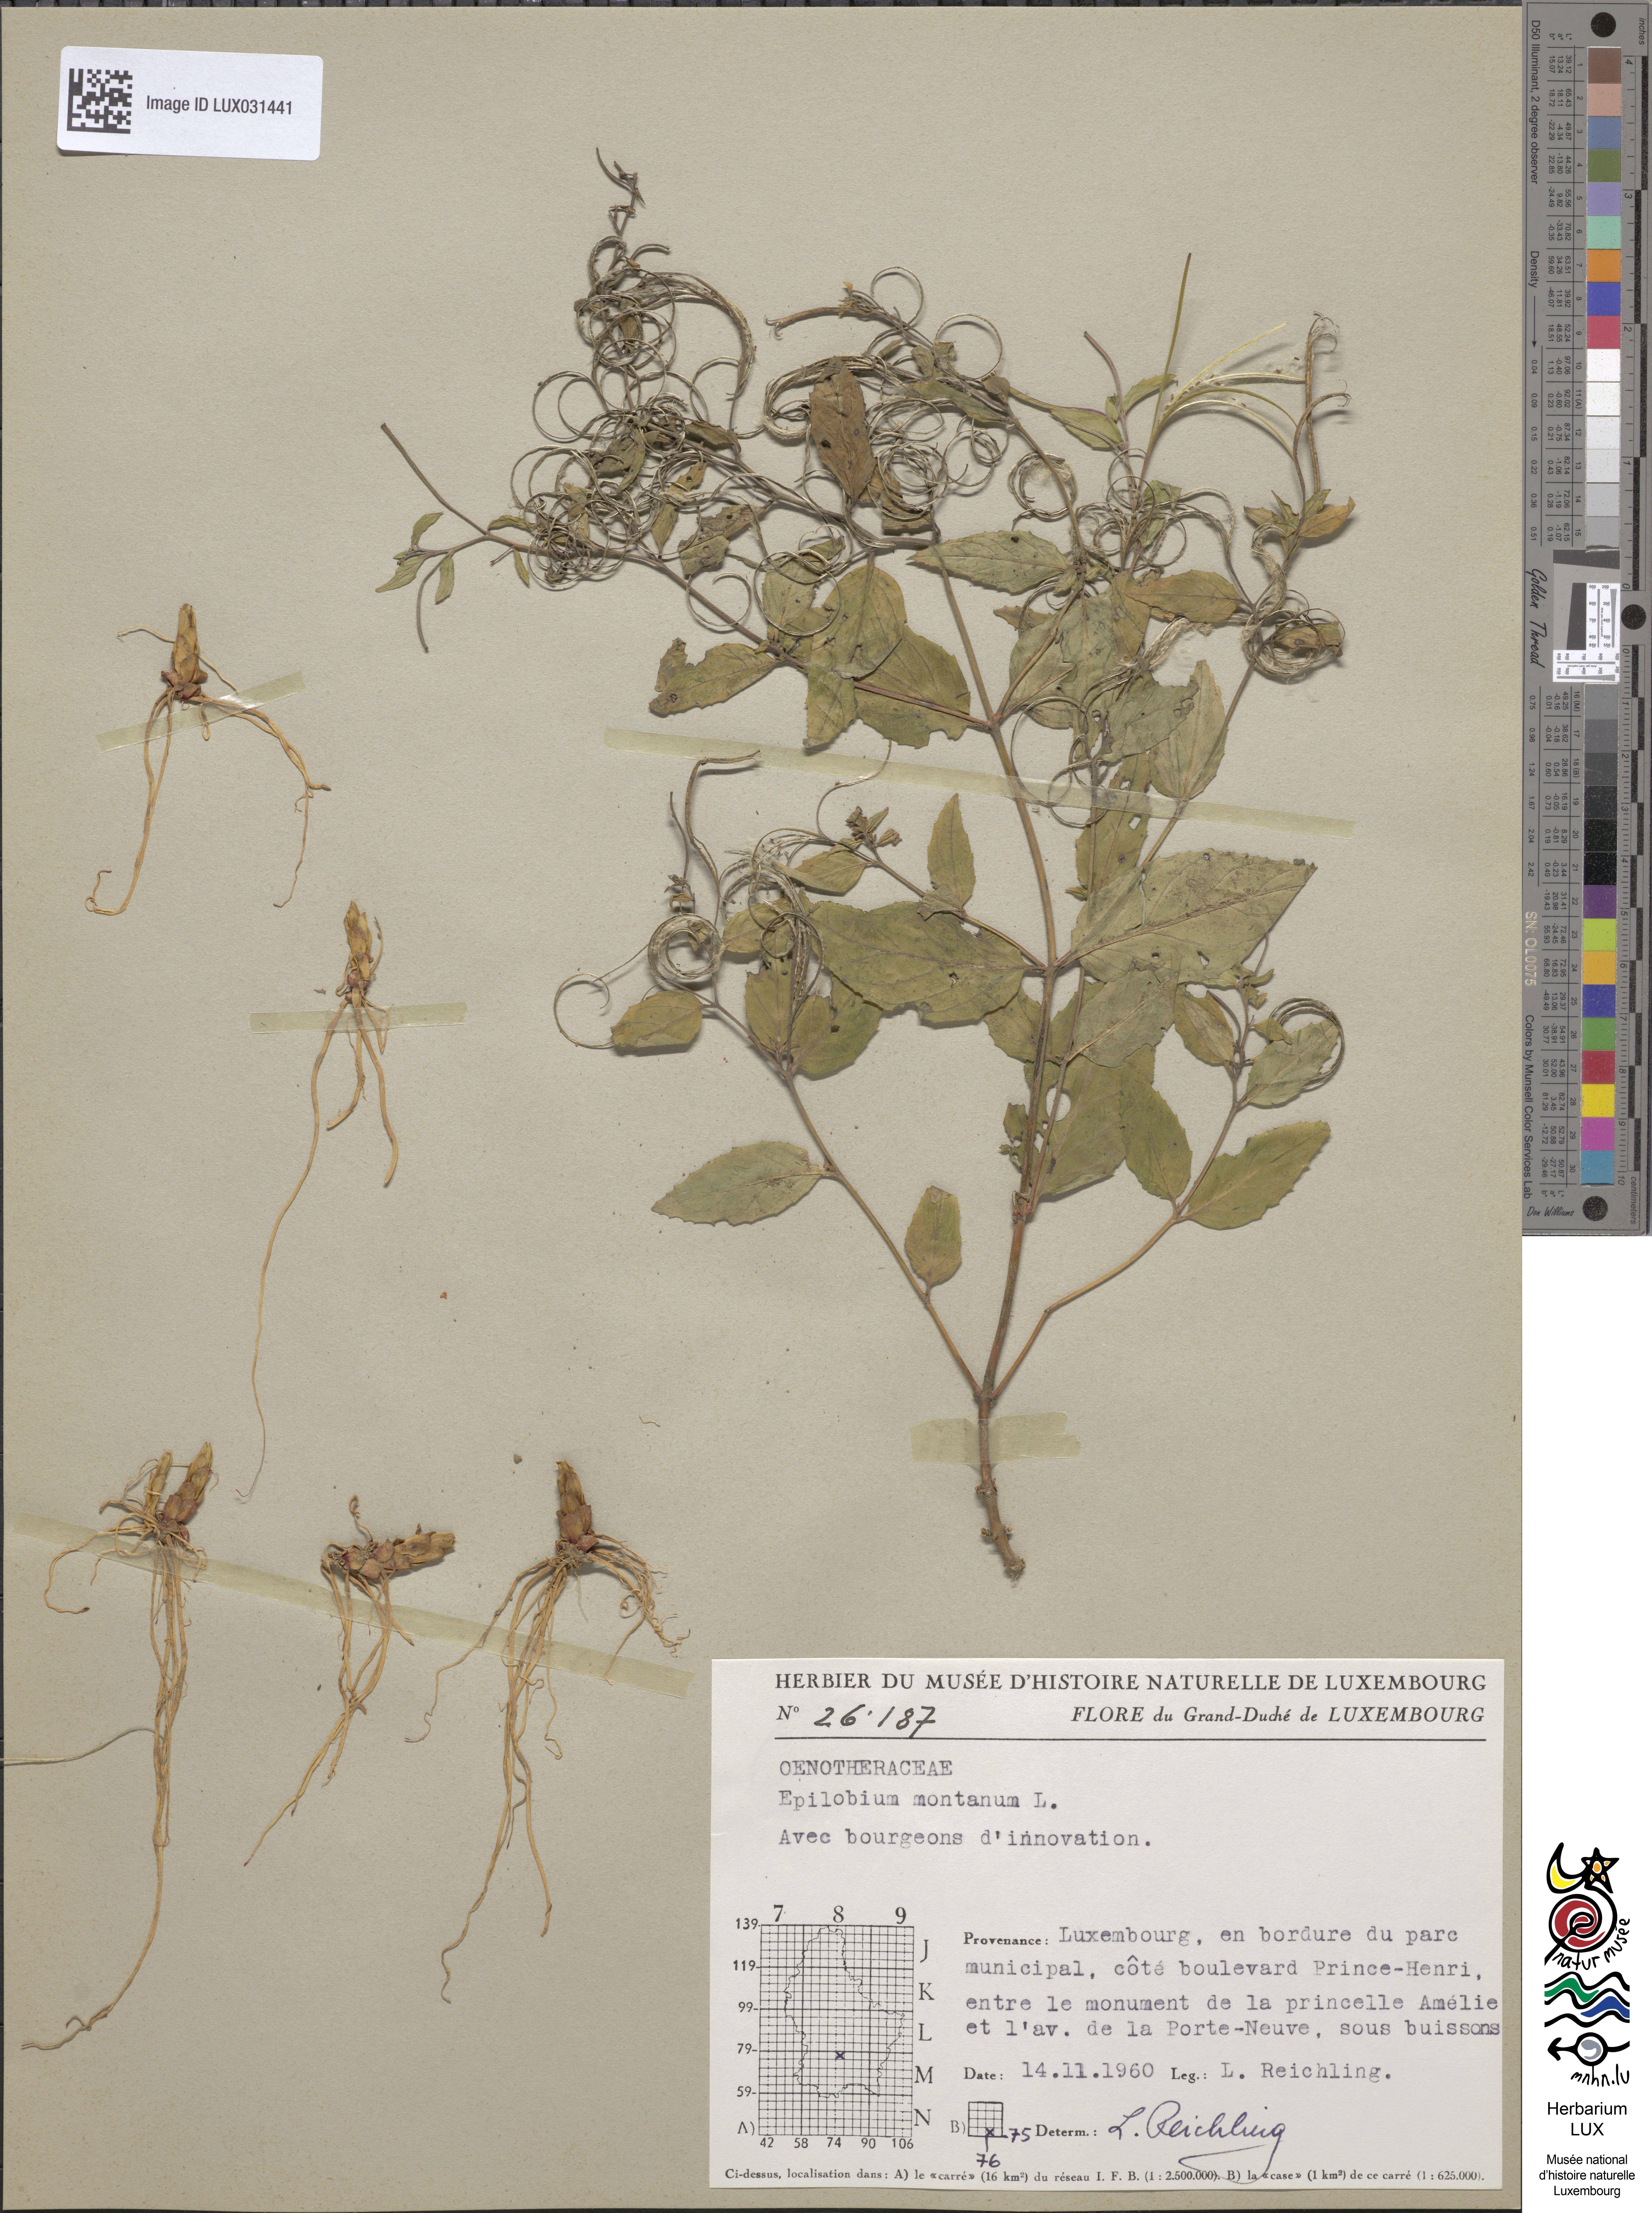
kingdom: Plantae
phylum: Tracheophyta
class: Magnoliopsida
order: Myrtales
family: Onagraceae
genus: Epilobium
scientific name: Epilobium montanum
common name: Broad-leaved willowherb
